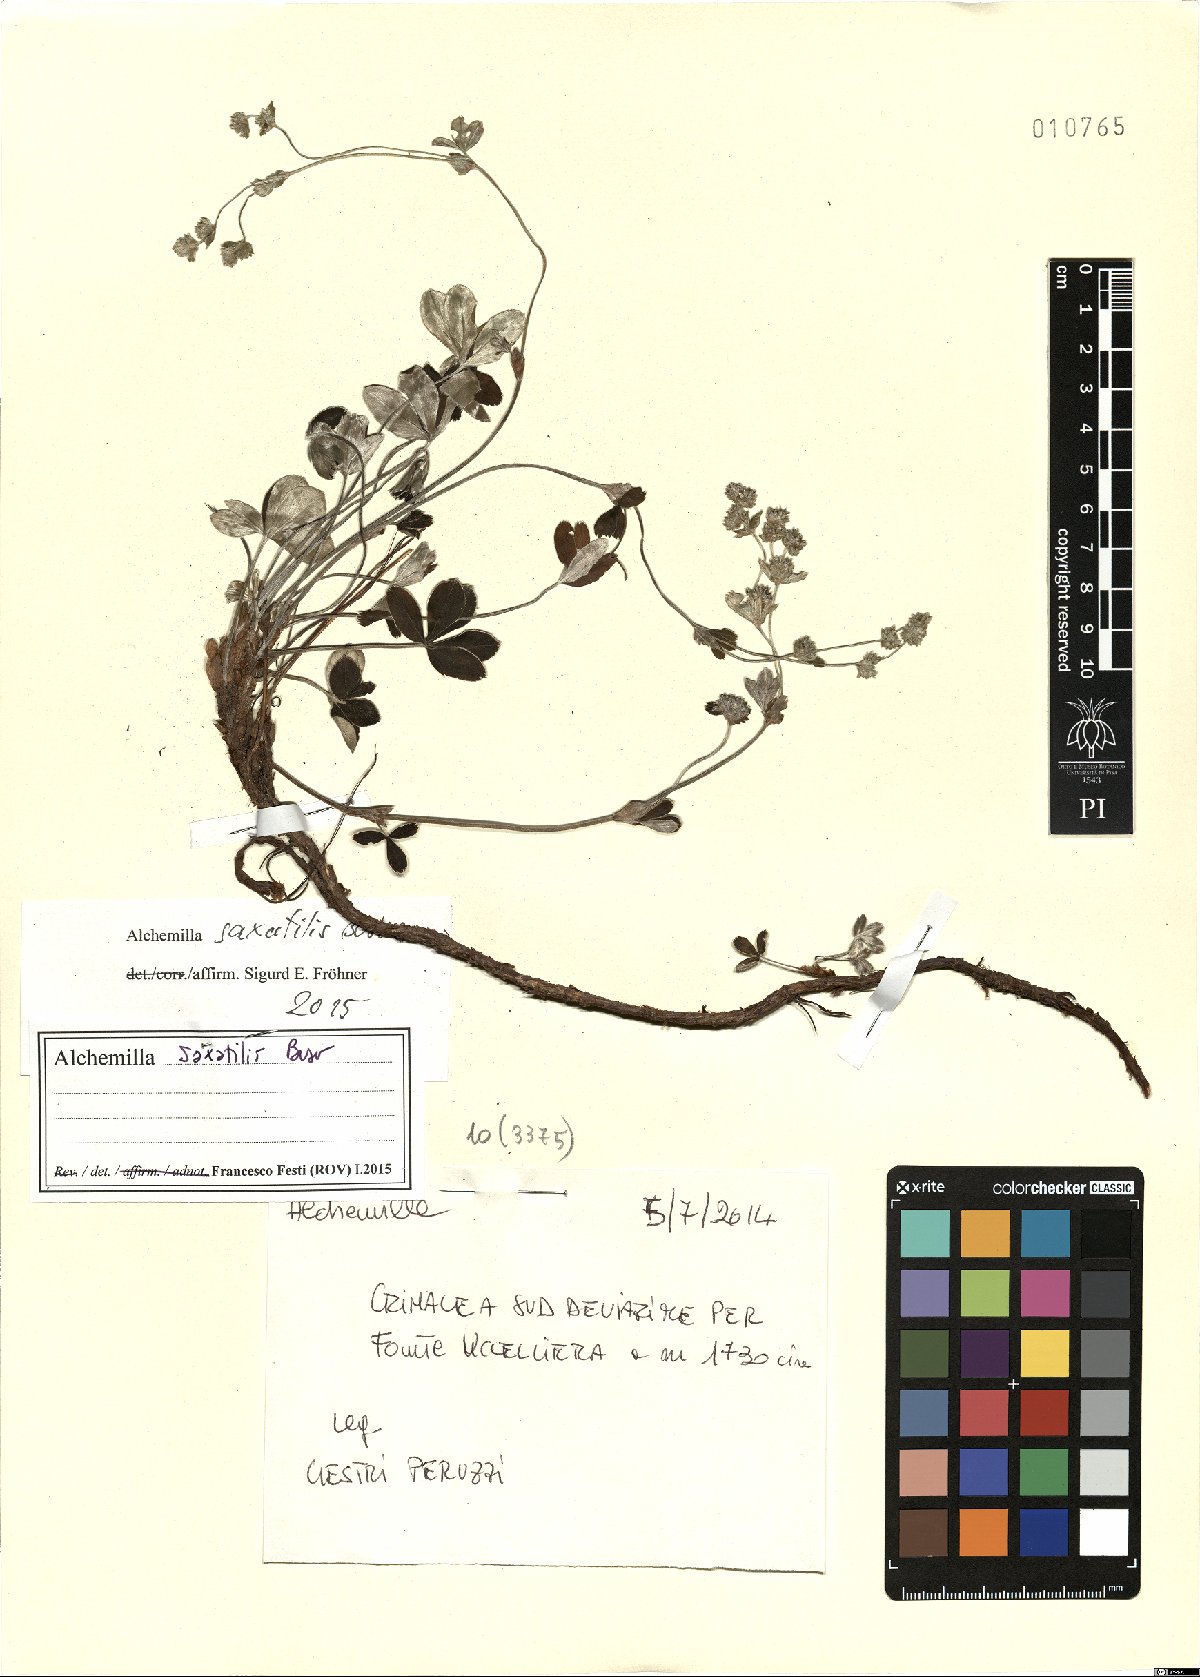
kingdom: Plantae
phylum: Tracheophyta
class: Magnoliopsida
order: Rosales
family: Rosaceae
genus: Alchemilla
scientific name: Alchemilla saxatilis
